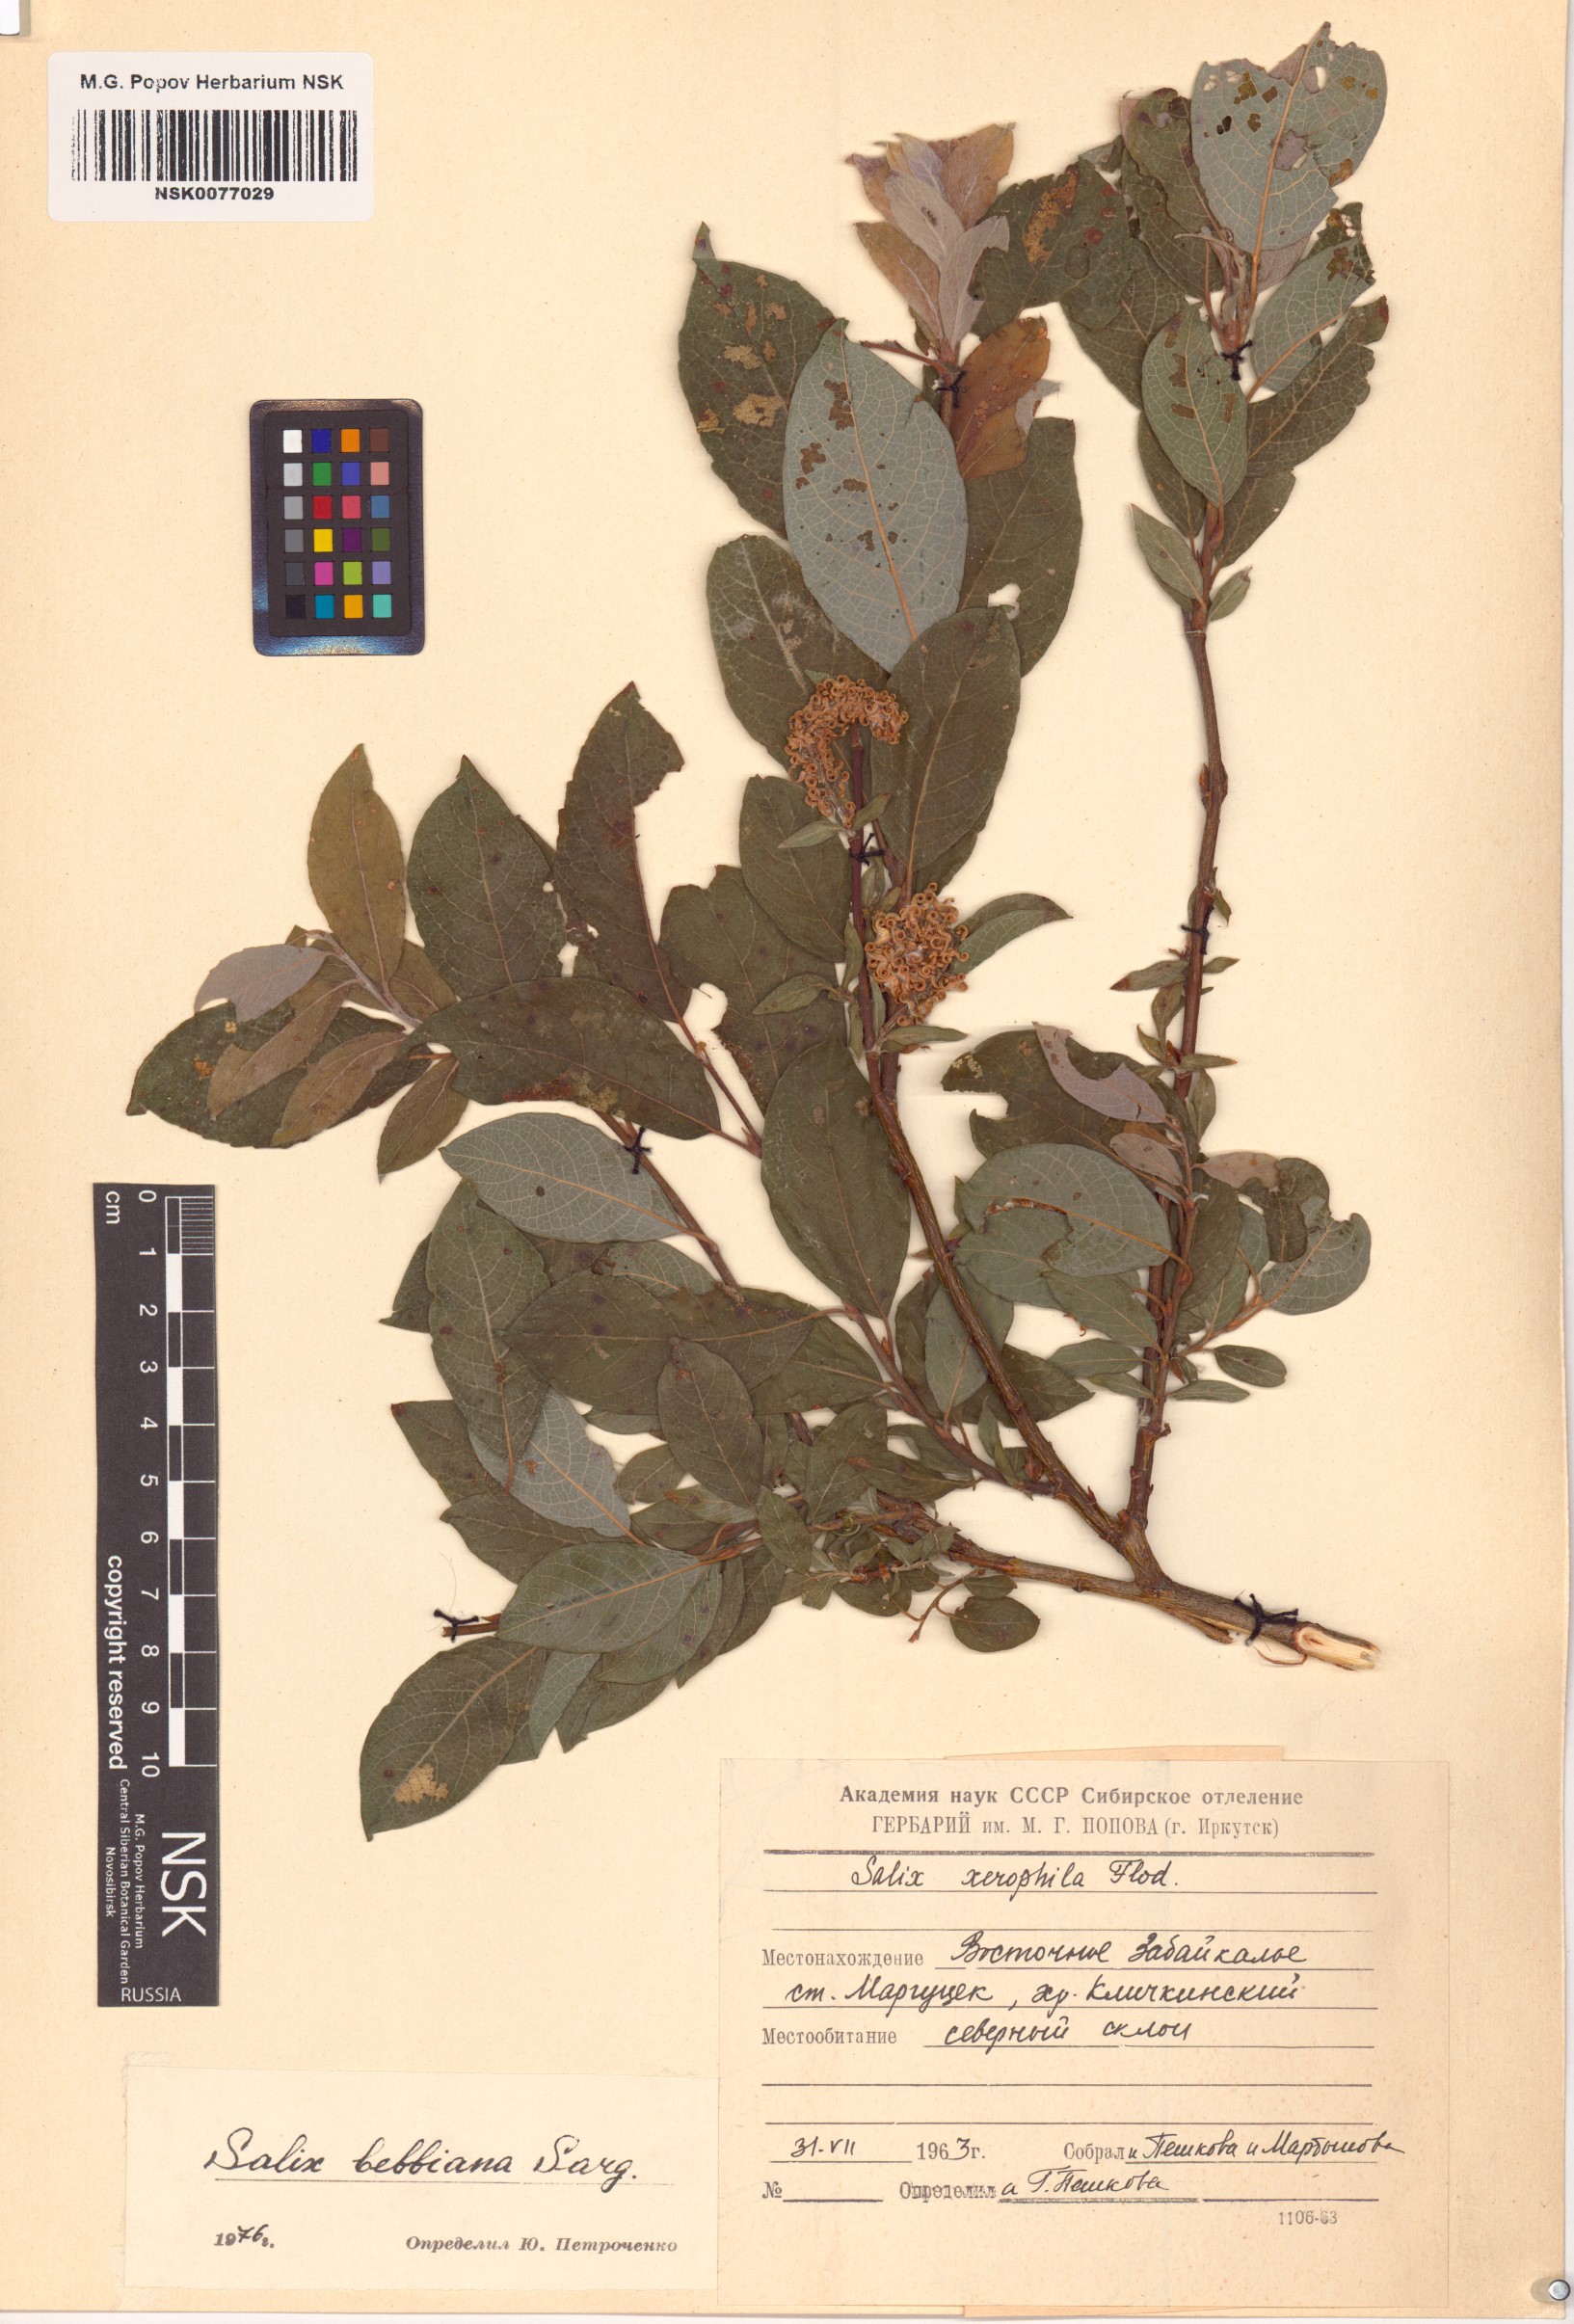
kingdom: Plantae
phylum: Tracheophyta
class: Magnoliopsida
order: Malpighiales
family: Salicaceae
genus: Salix
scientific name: Salix bebbiana
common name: Bebb's willow
